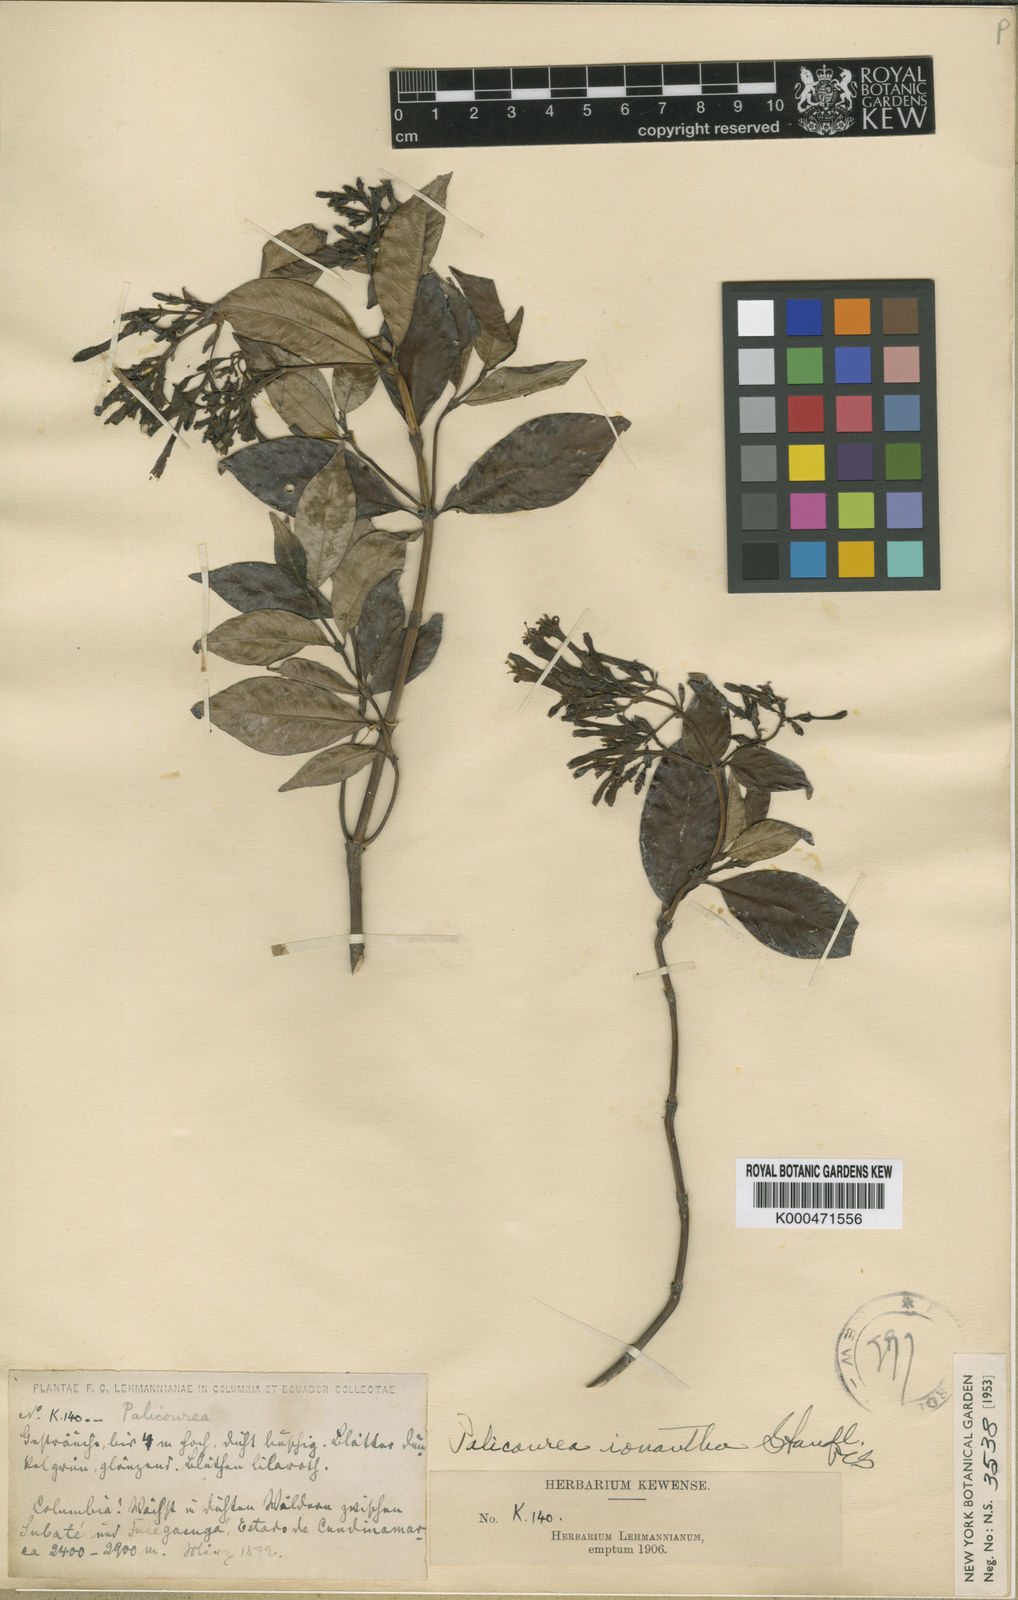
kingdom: Plantae
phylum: Tracheophyta
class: Magnoliopsida
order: Gentianales
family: Rubiaceae
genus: Palicourea
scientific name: Palicourea ionantha
